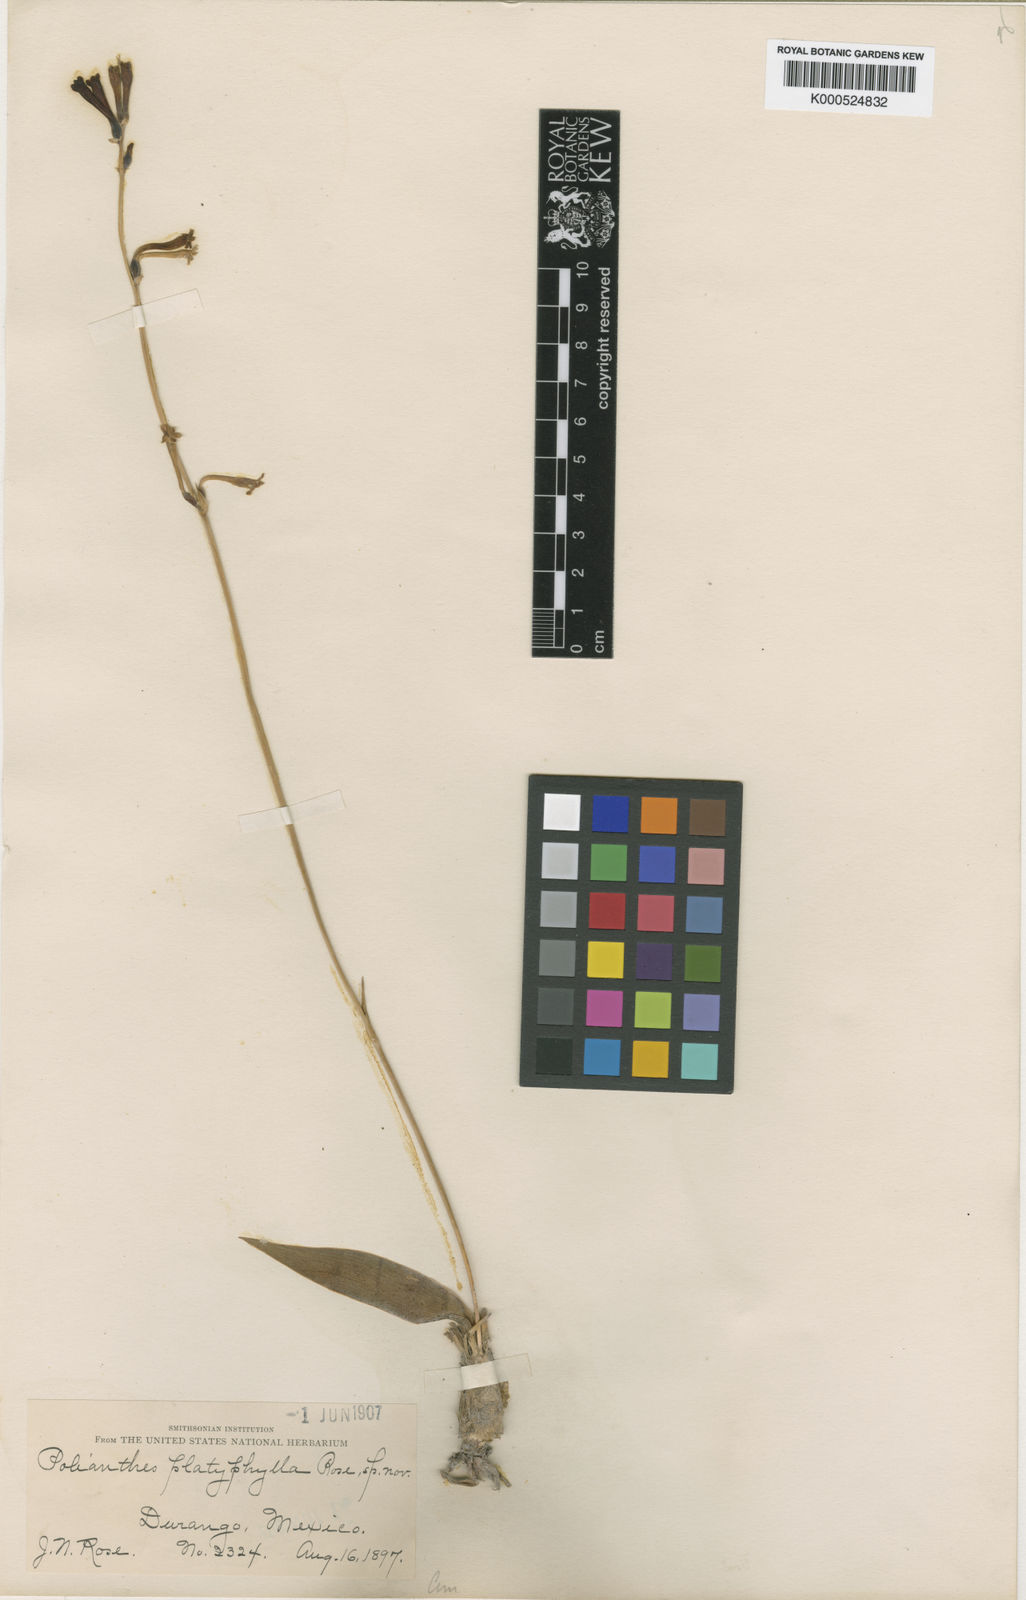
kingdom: Plantae
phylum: Tracheophyta
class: Liliopsida
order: Asparagales
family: Asparagaceae
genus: Agave
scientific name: Agave platyphylla
